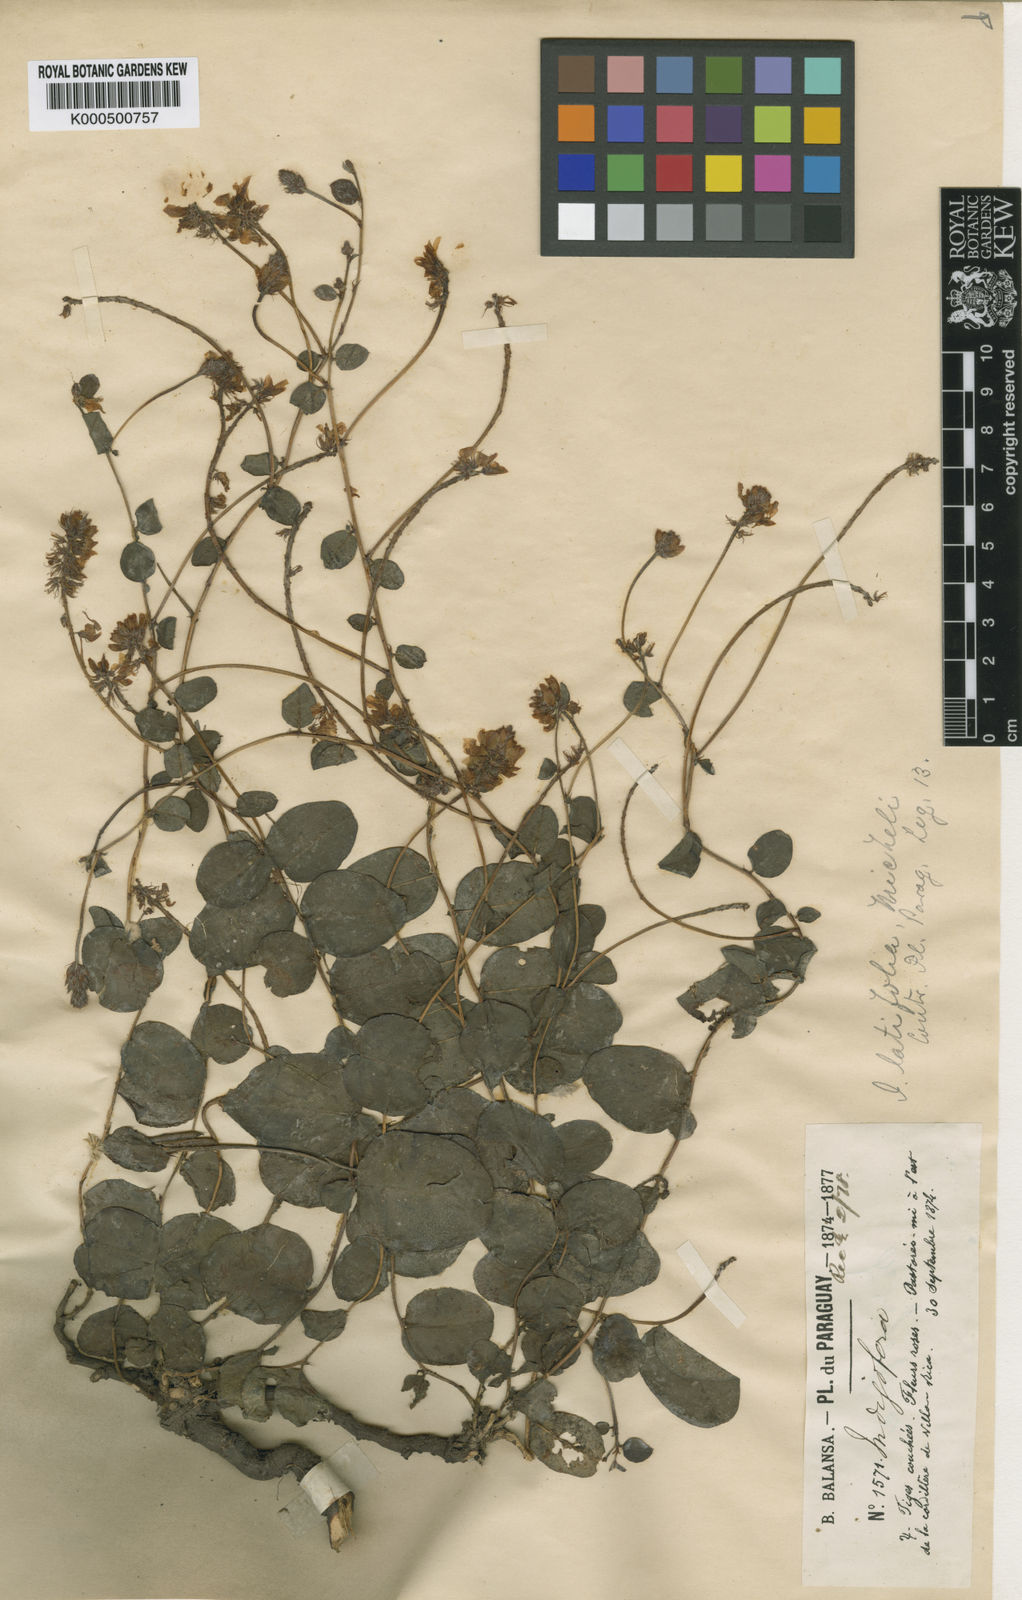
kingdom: Plantae
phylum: Tracheophyta
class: Magnoliopsida
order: Fabales
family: Fabaceae
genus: Indigofera
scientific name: Indigofera latifolia
